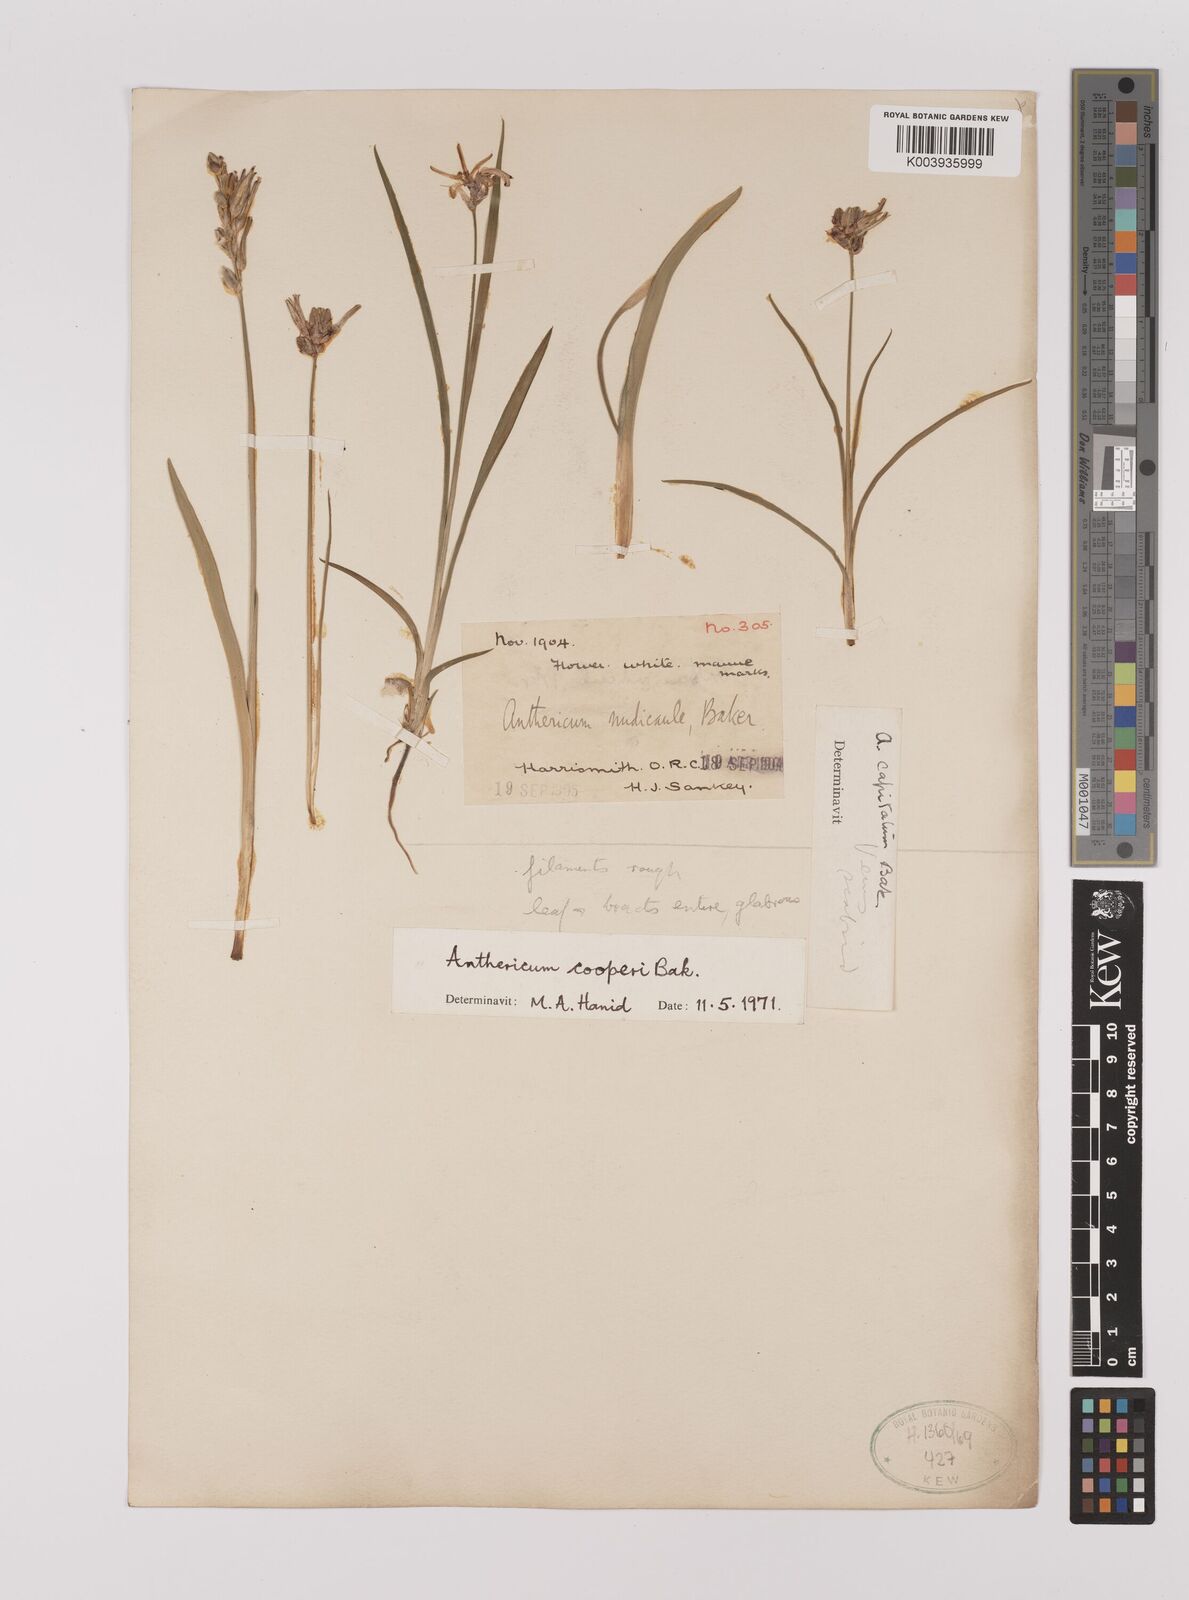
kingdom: Plantae
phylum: Tracheophyta
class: Liliopsida
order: Asparagales
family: Asparagaceae
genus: Chlorophytum
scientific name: Chlorophytum cooperi
